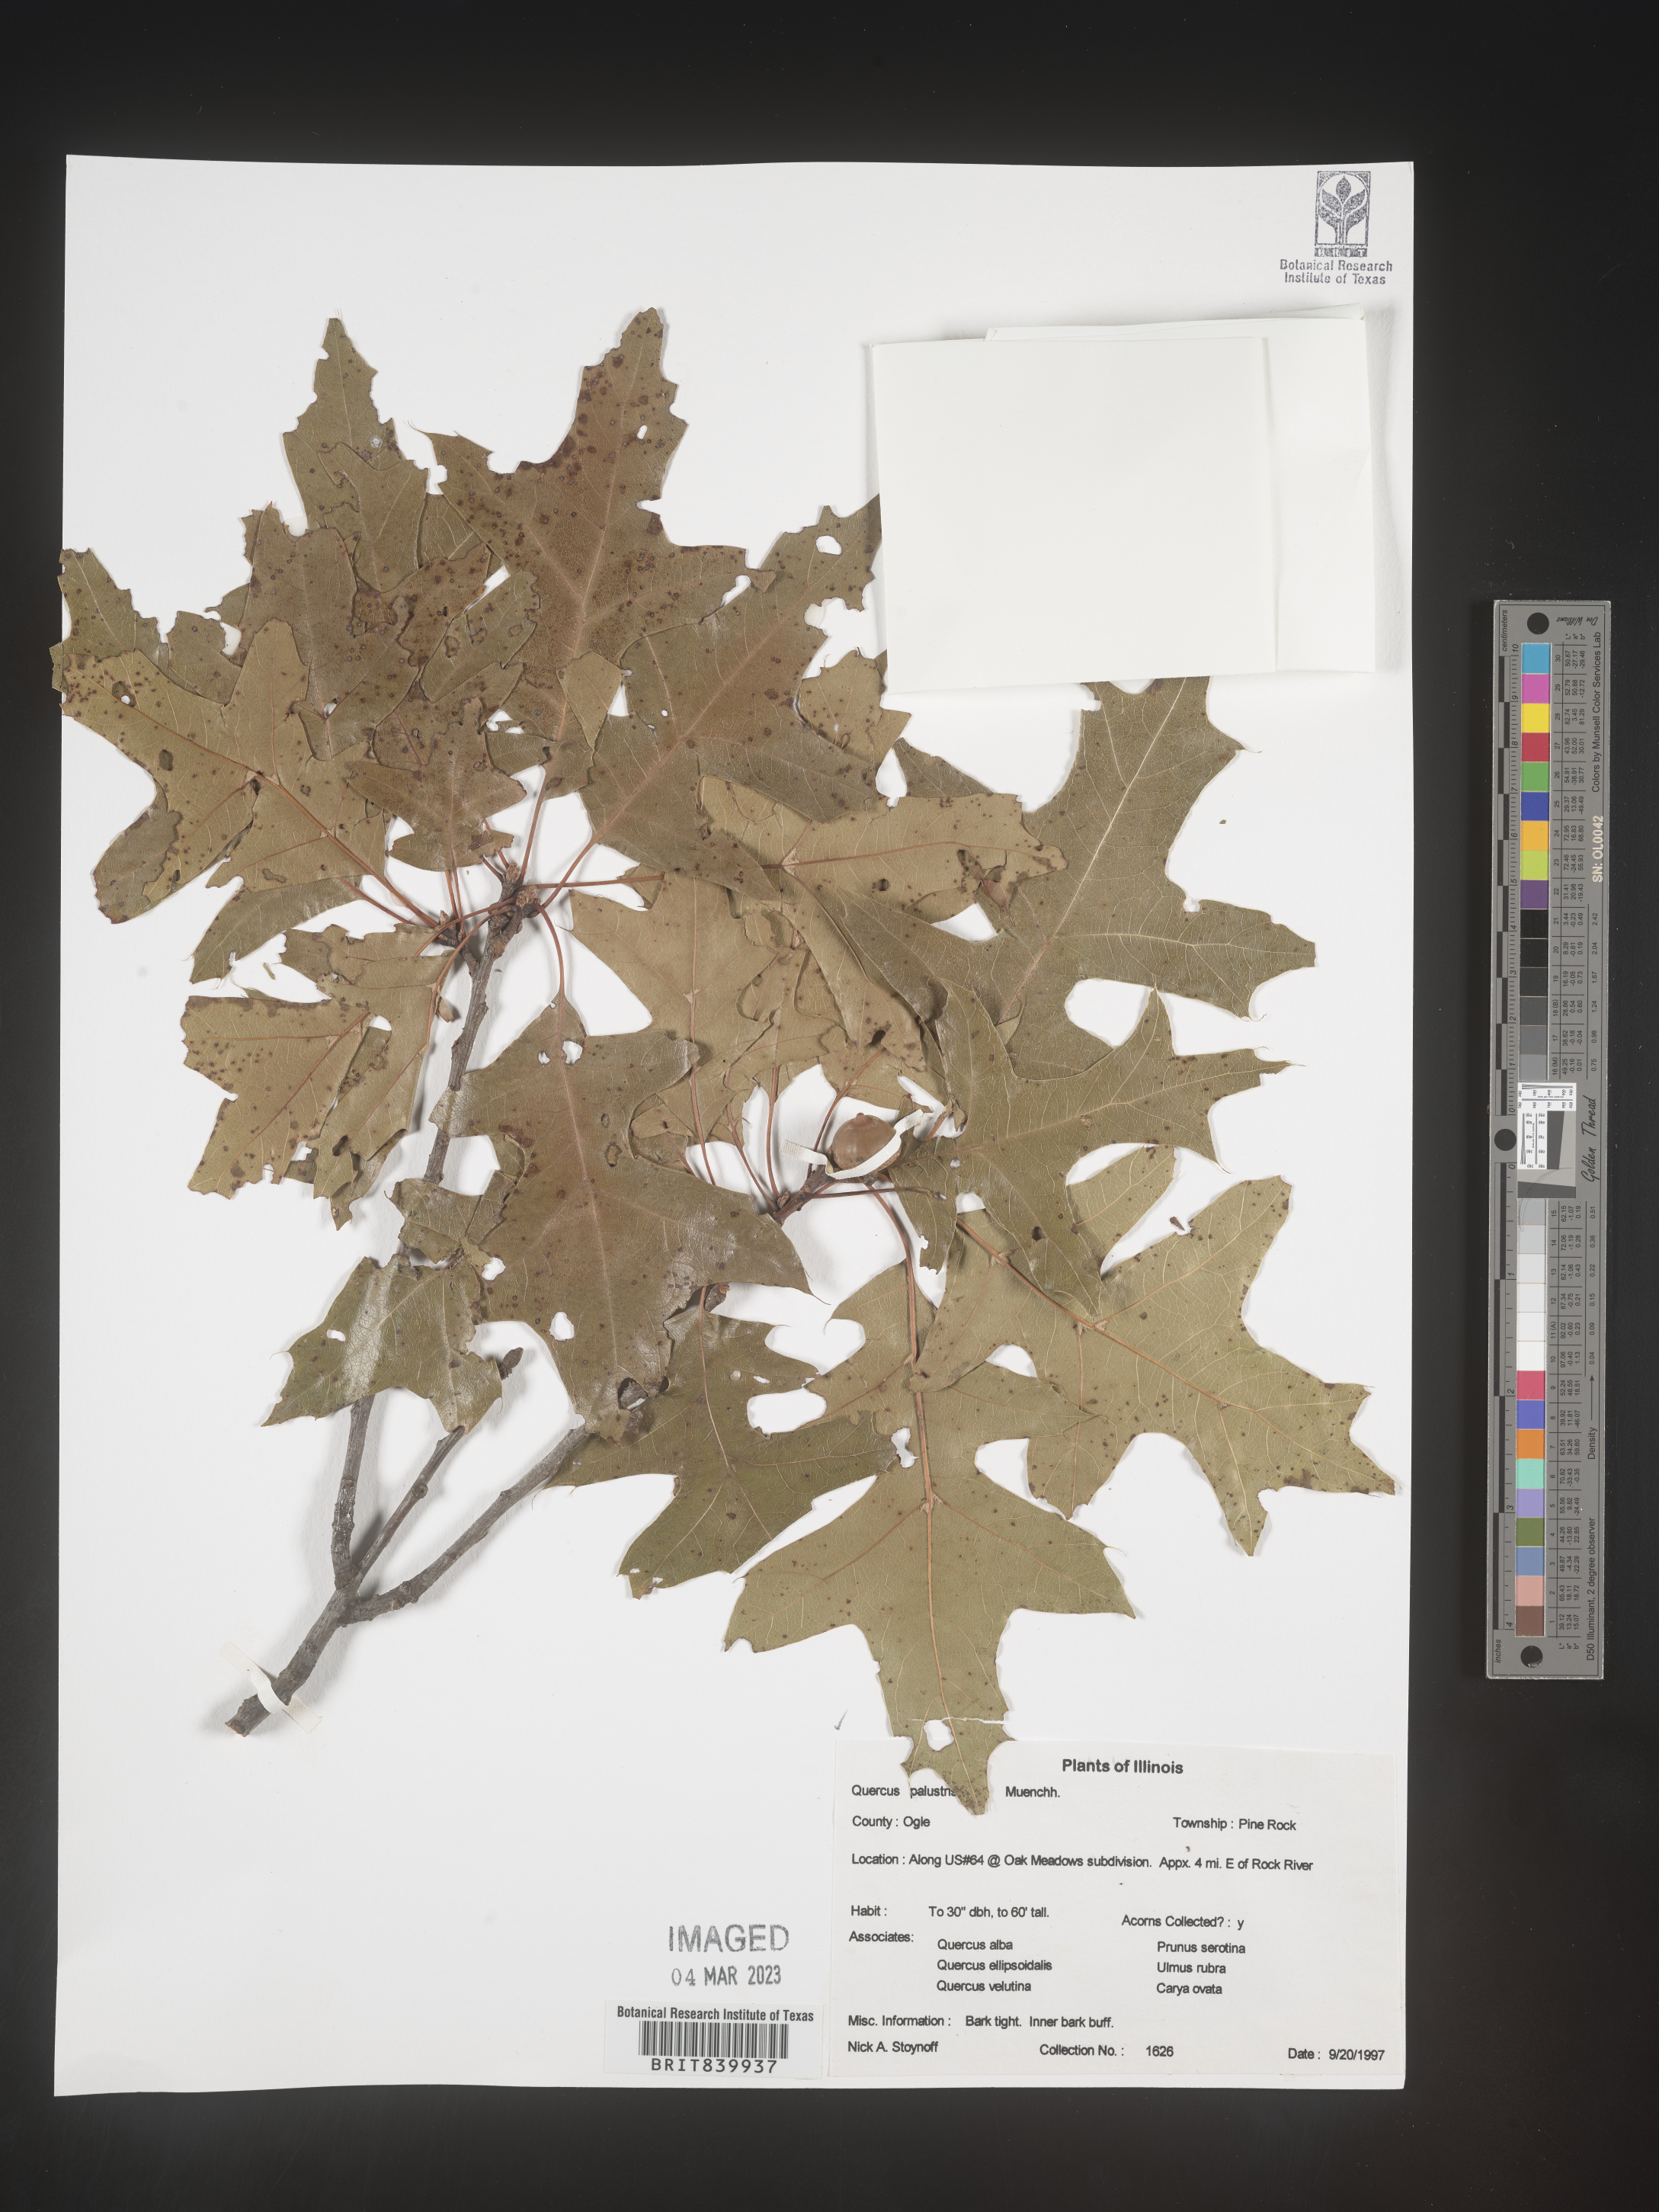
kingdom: Plantae
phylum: Tracheophyta
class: Magnoliopsida
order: Fagales
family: Fagaceae
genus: Quercus
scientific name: Quercus palustris
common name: Pin oak
